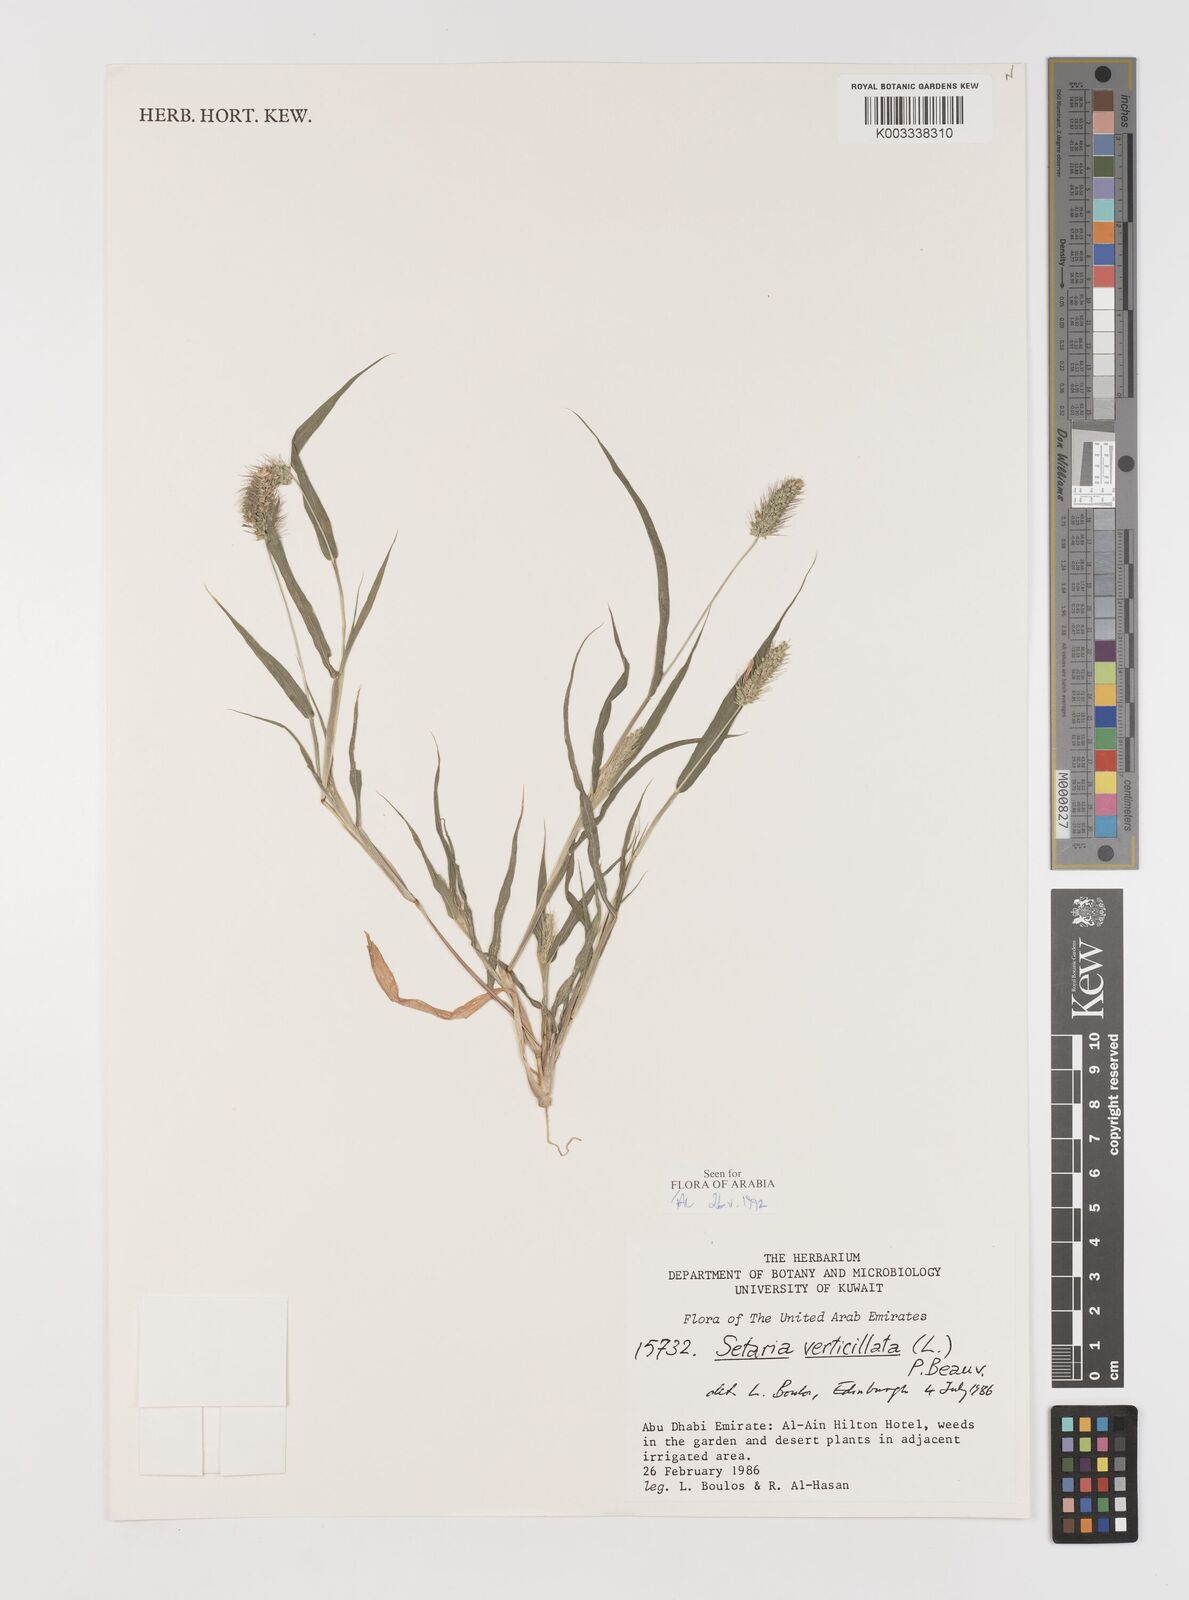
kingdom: Plantae
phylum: Tracheophyta
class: Liliopsida
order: Poales
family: Poaceae
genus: Setaria
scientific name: Setaria grisebachii
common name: Grisebach's bristle grass
